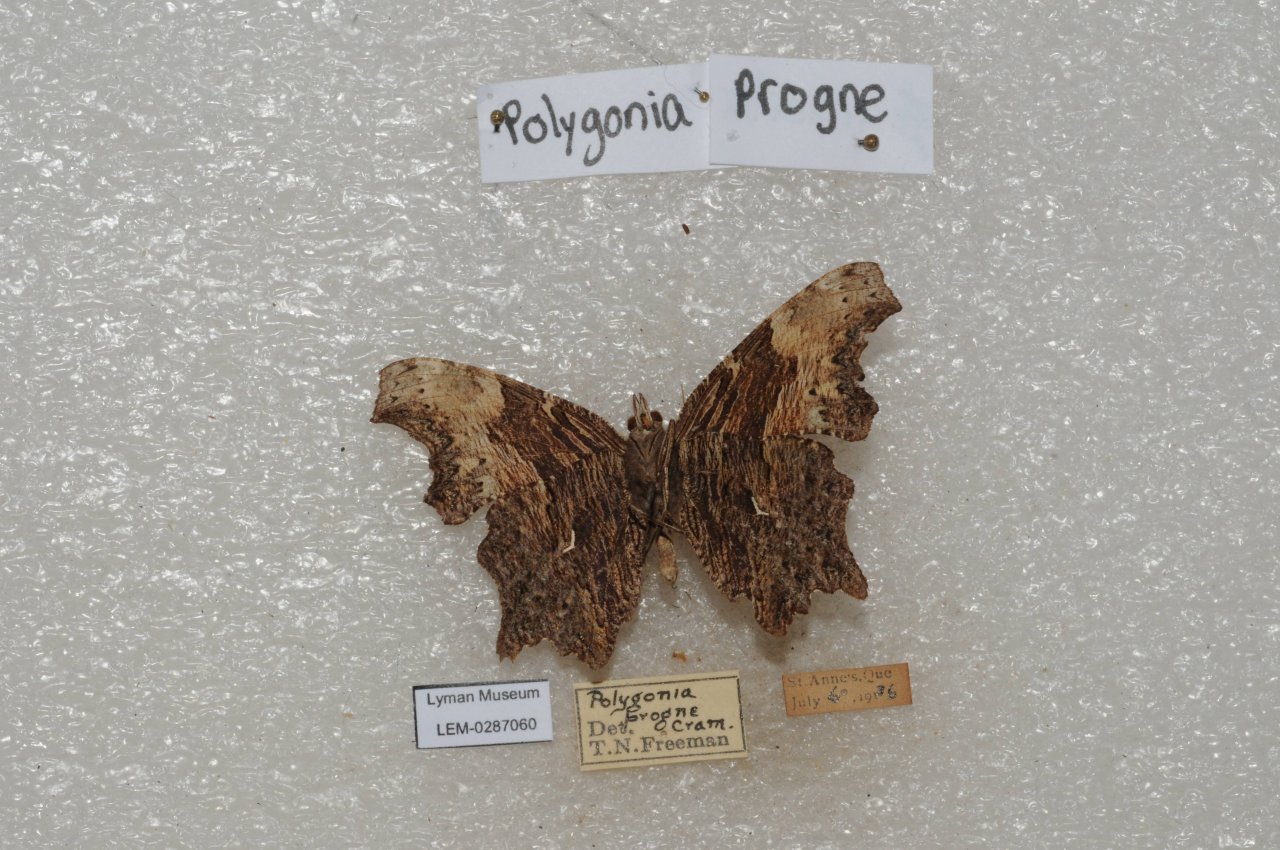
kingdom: Animalia
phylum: Arthropoda
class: Insecta
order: Lepidoptera
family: Nymphalidae
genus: Polygonia
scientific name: Polygonia progne
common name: Gray Comma
